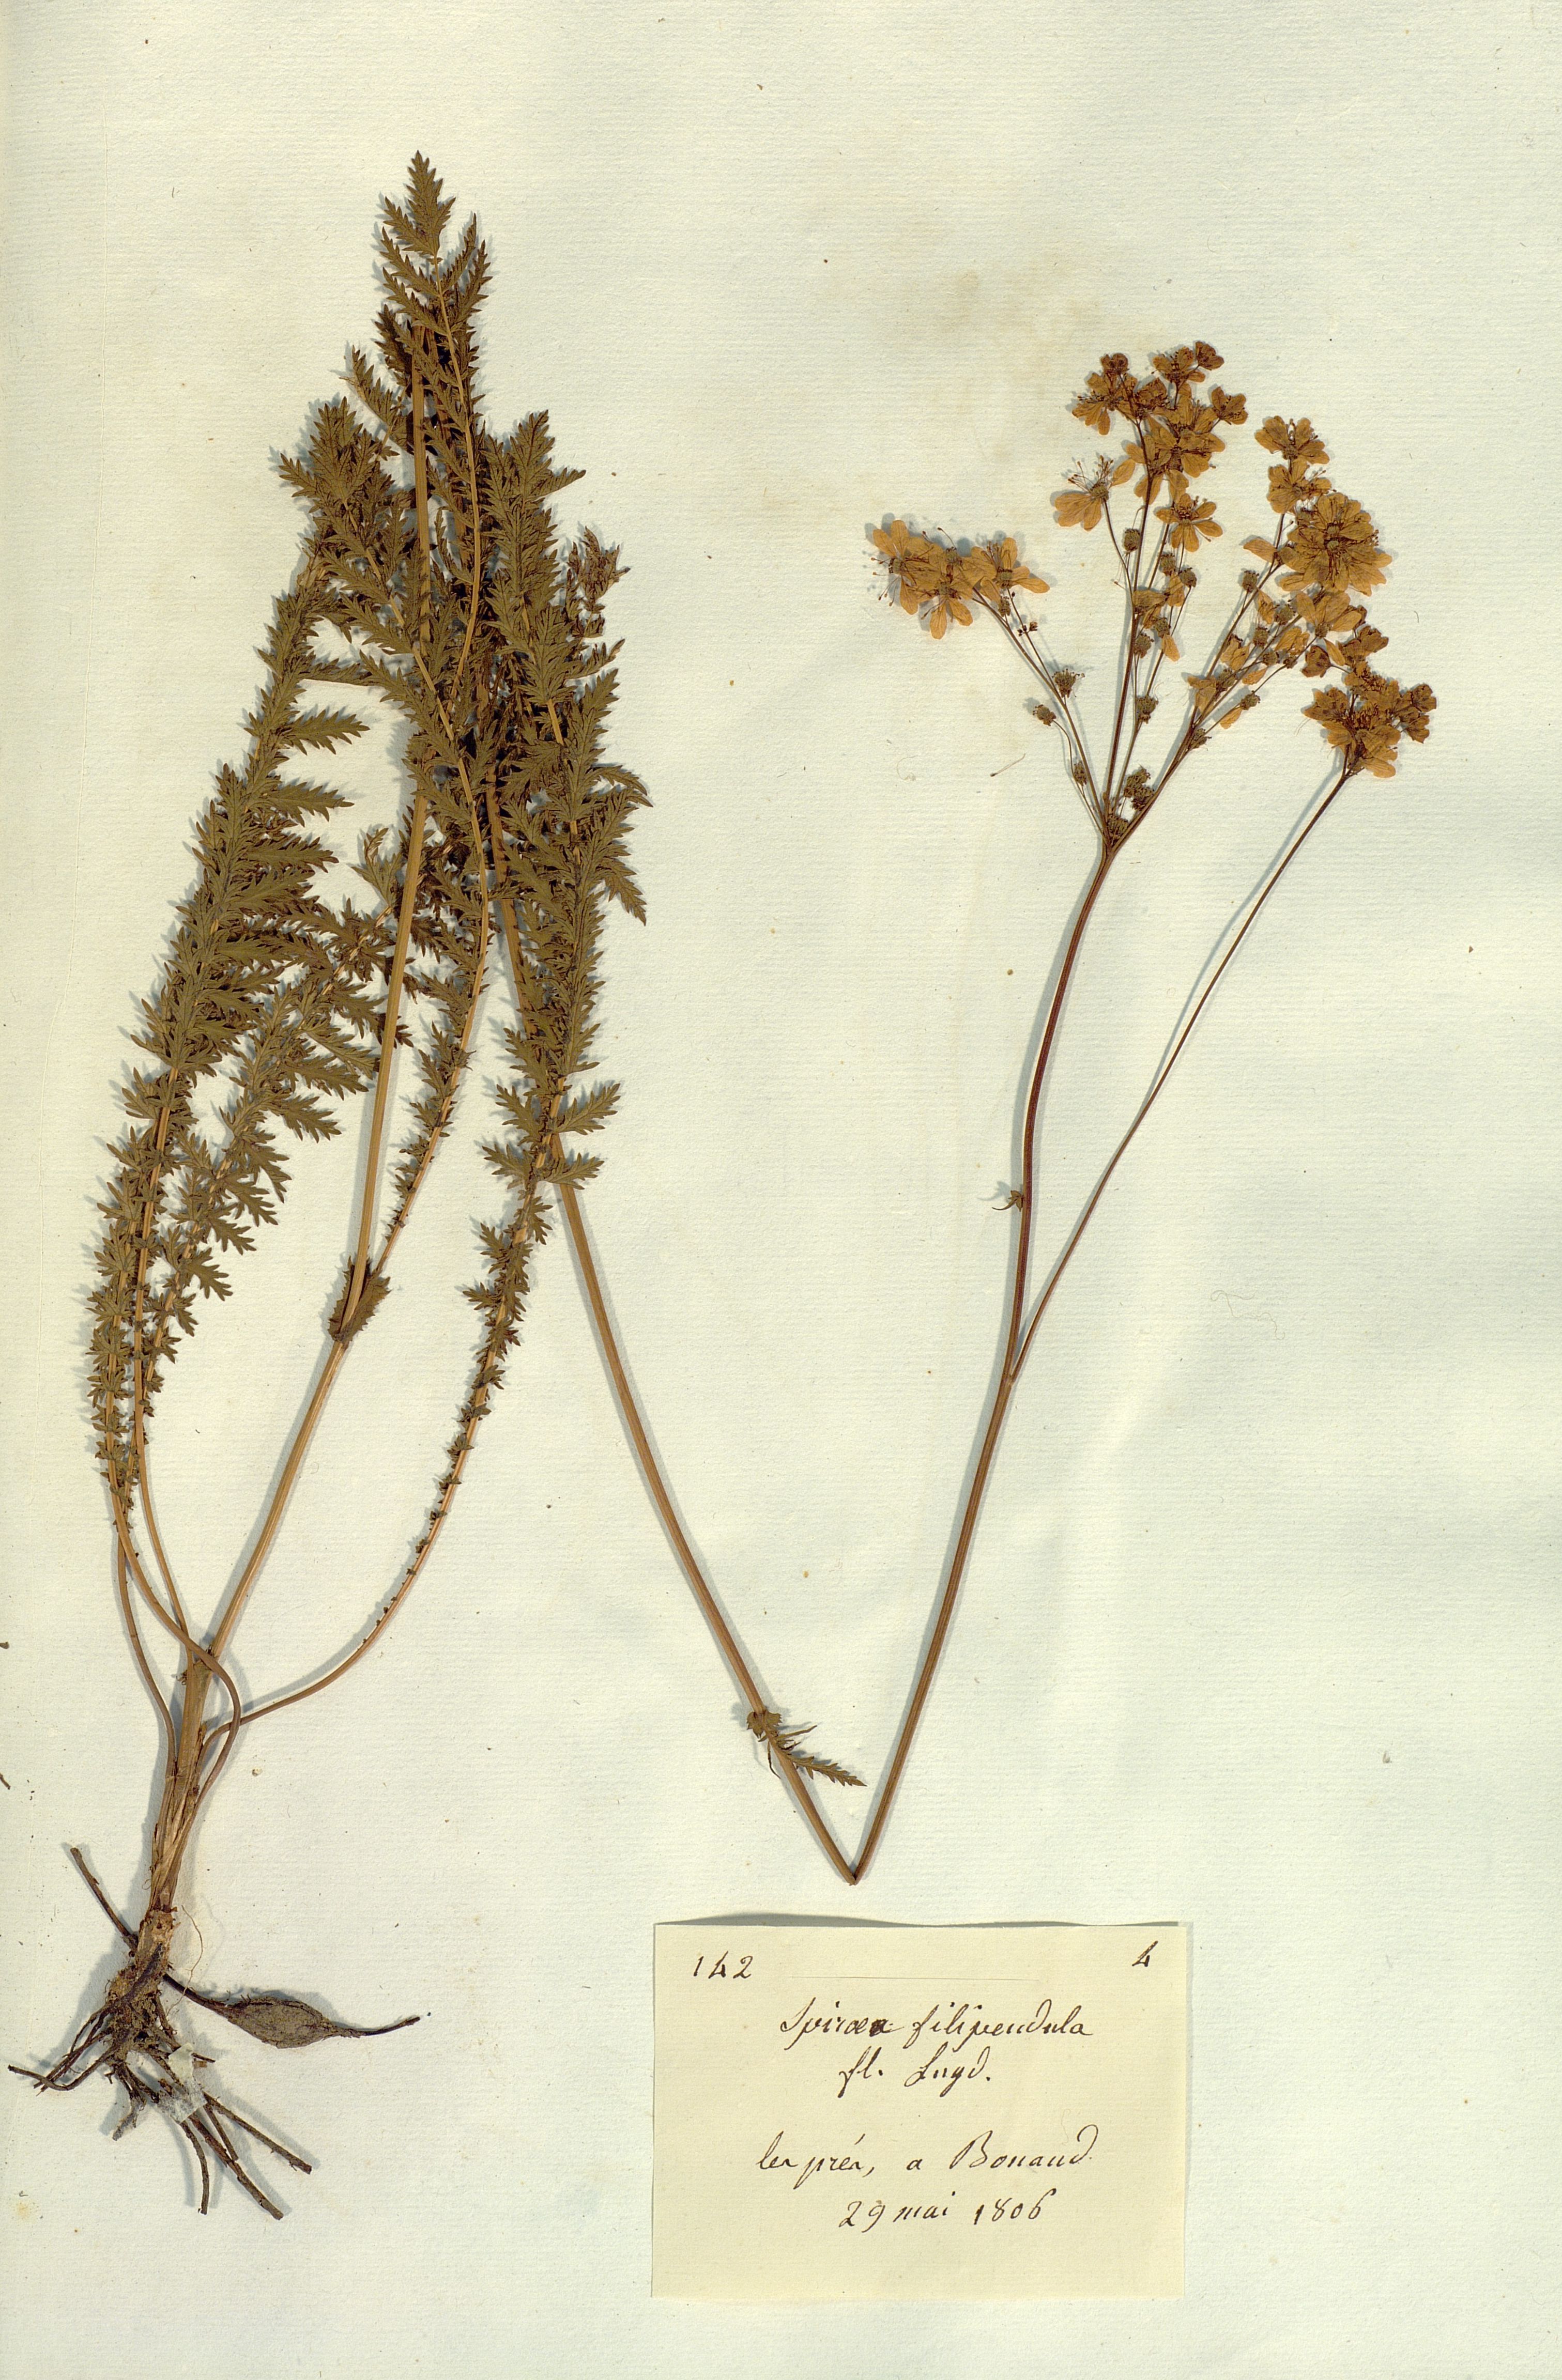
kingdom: Plantae
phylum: Tracheophyta
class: Magnoliopsida
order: Rosales
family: Rosaceae
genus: Filipendula
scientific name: Filipendula vulgaris
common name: Dropwort
